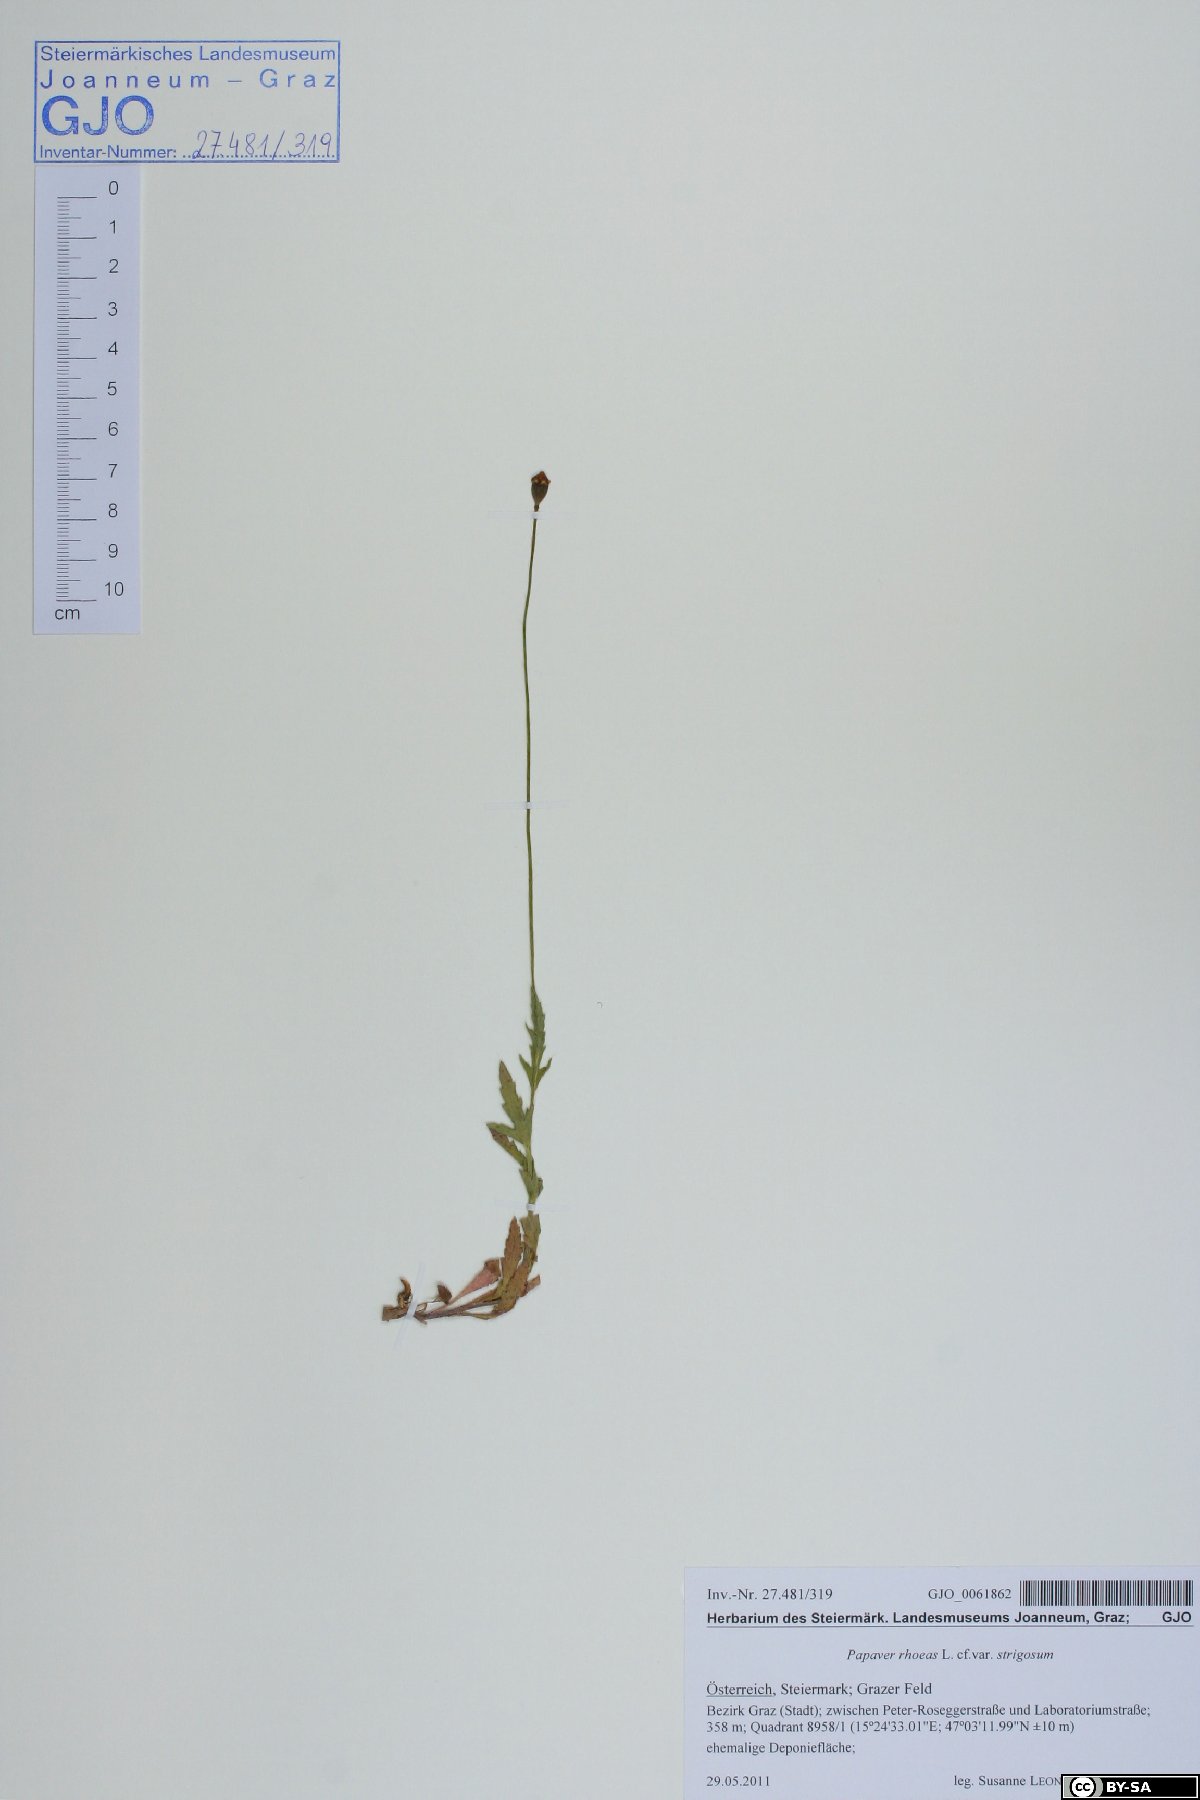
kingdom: Plantae
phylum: Tracheophyta
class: Magnoliopsida
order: Ranunculales
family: Papaveraceae
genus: Papaver
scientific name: Papaver rhoeas
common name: Corn poppy
